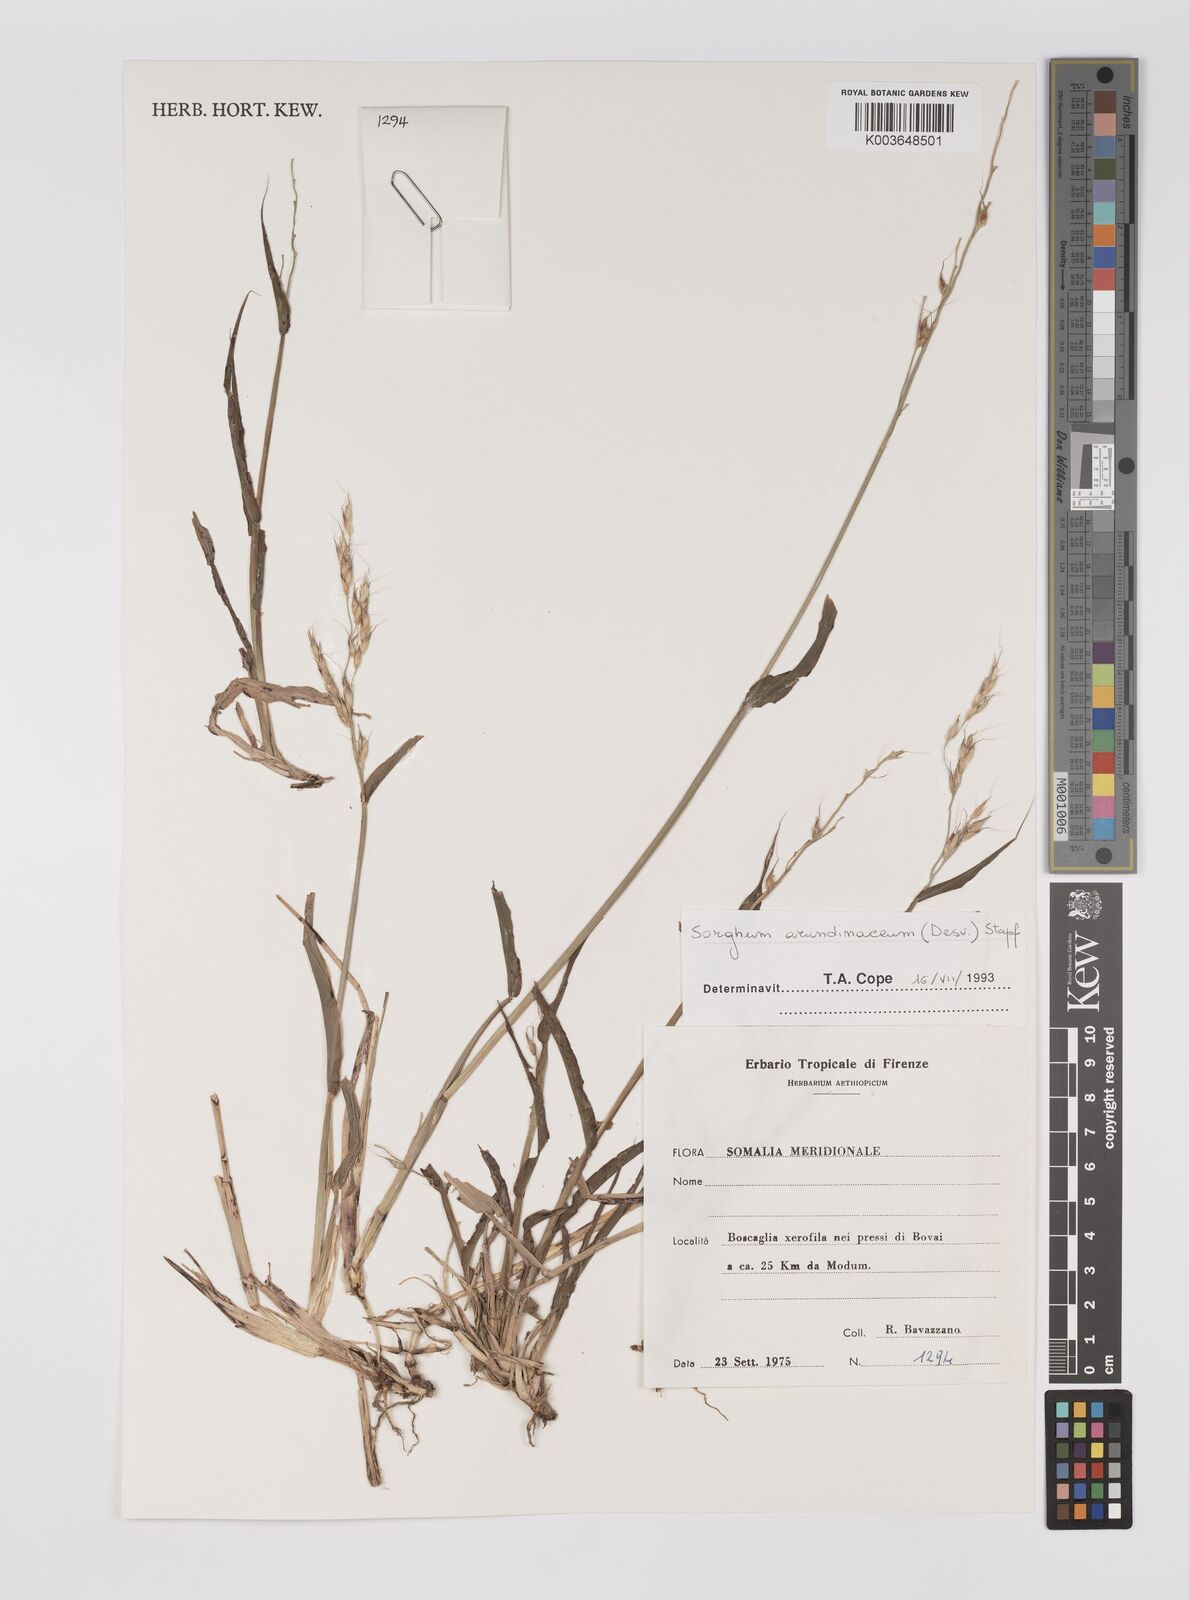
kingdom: Plantae
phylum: Tracheophyta
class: Liliopsida
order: Poales
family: Poaceae
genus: Sorghum
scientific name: Sorghum arundinaceum
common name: Sorghum
